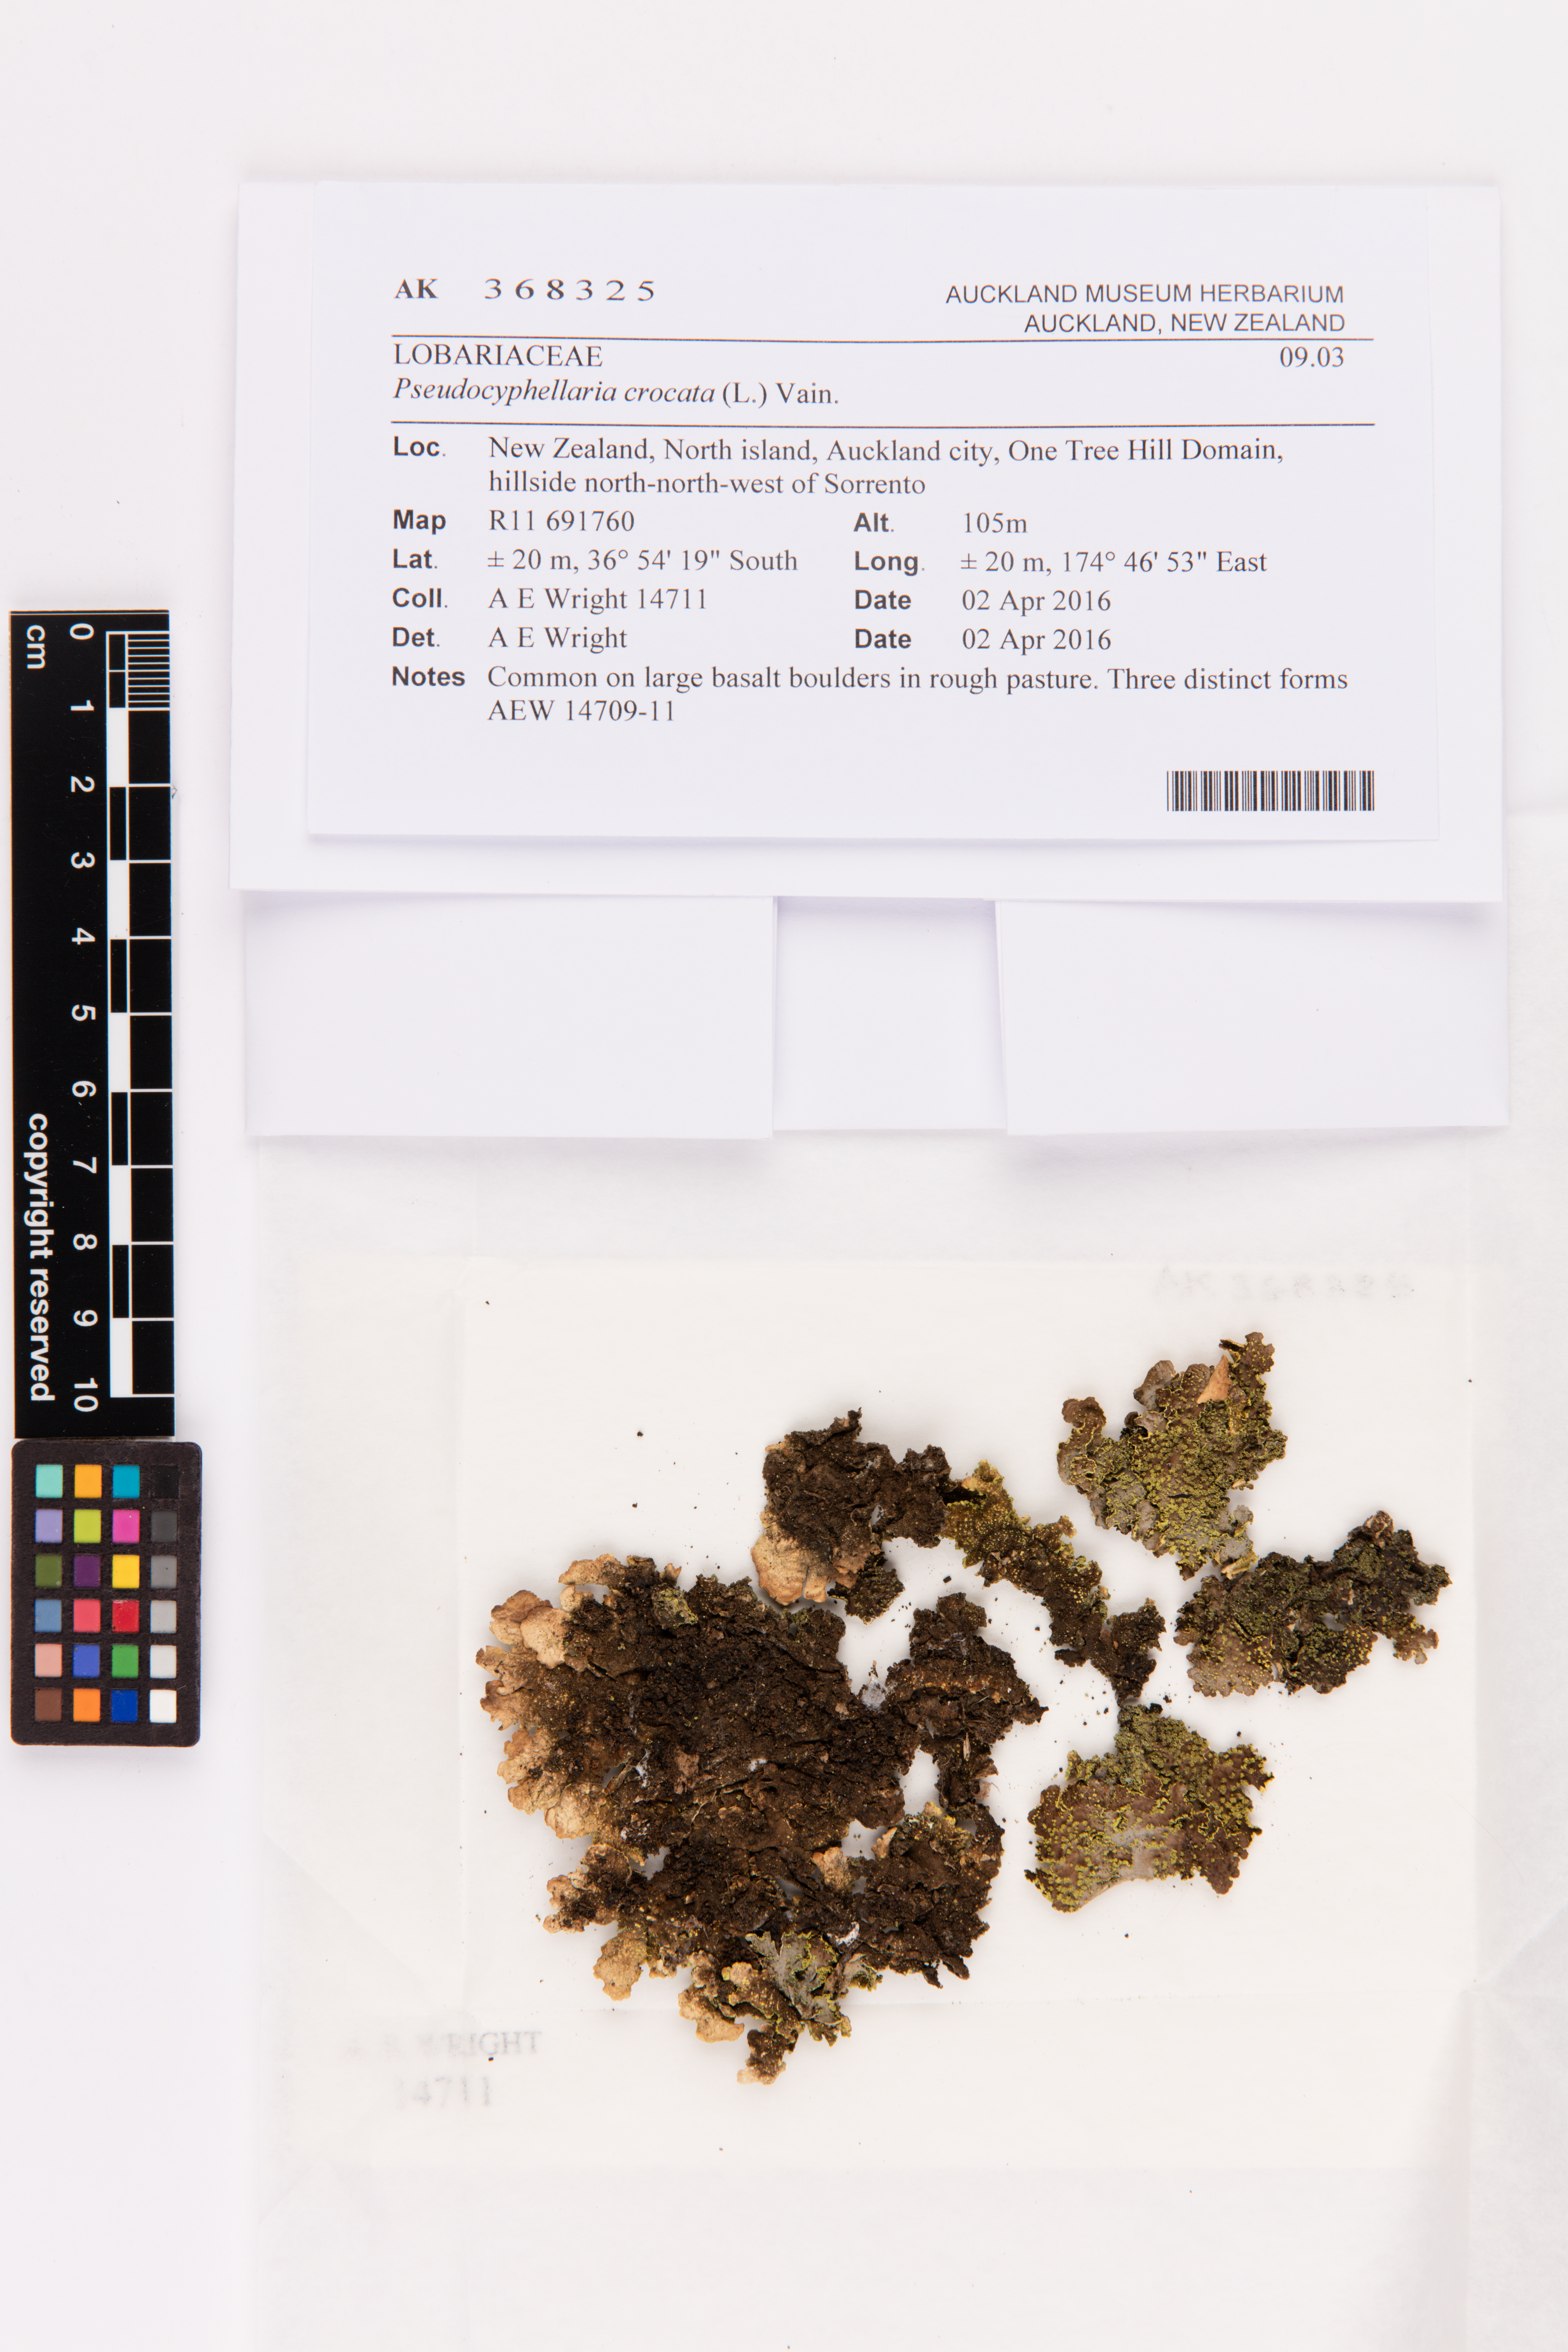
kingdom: Fungi
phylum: Ascomycota
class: Lecanoromycetes
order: Peltigerales
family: Lobariaceae
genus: Pseudocyphellaria
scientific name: Pseudocyphellaria crocata
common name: Golden specklebelly
